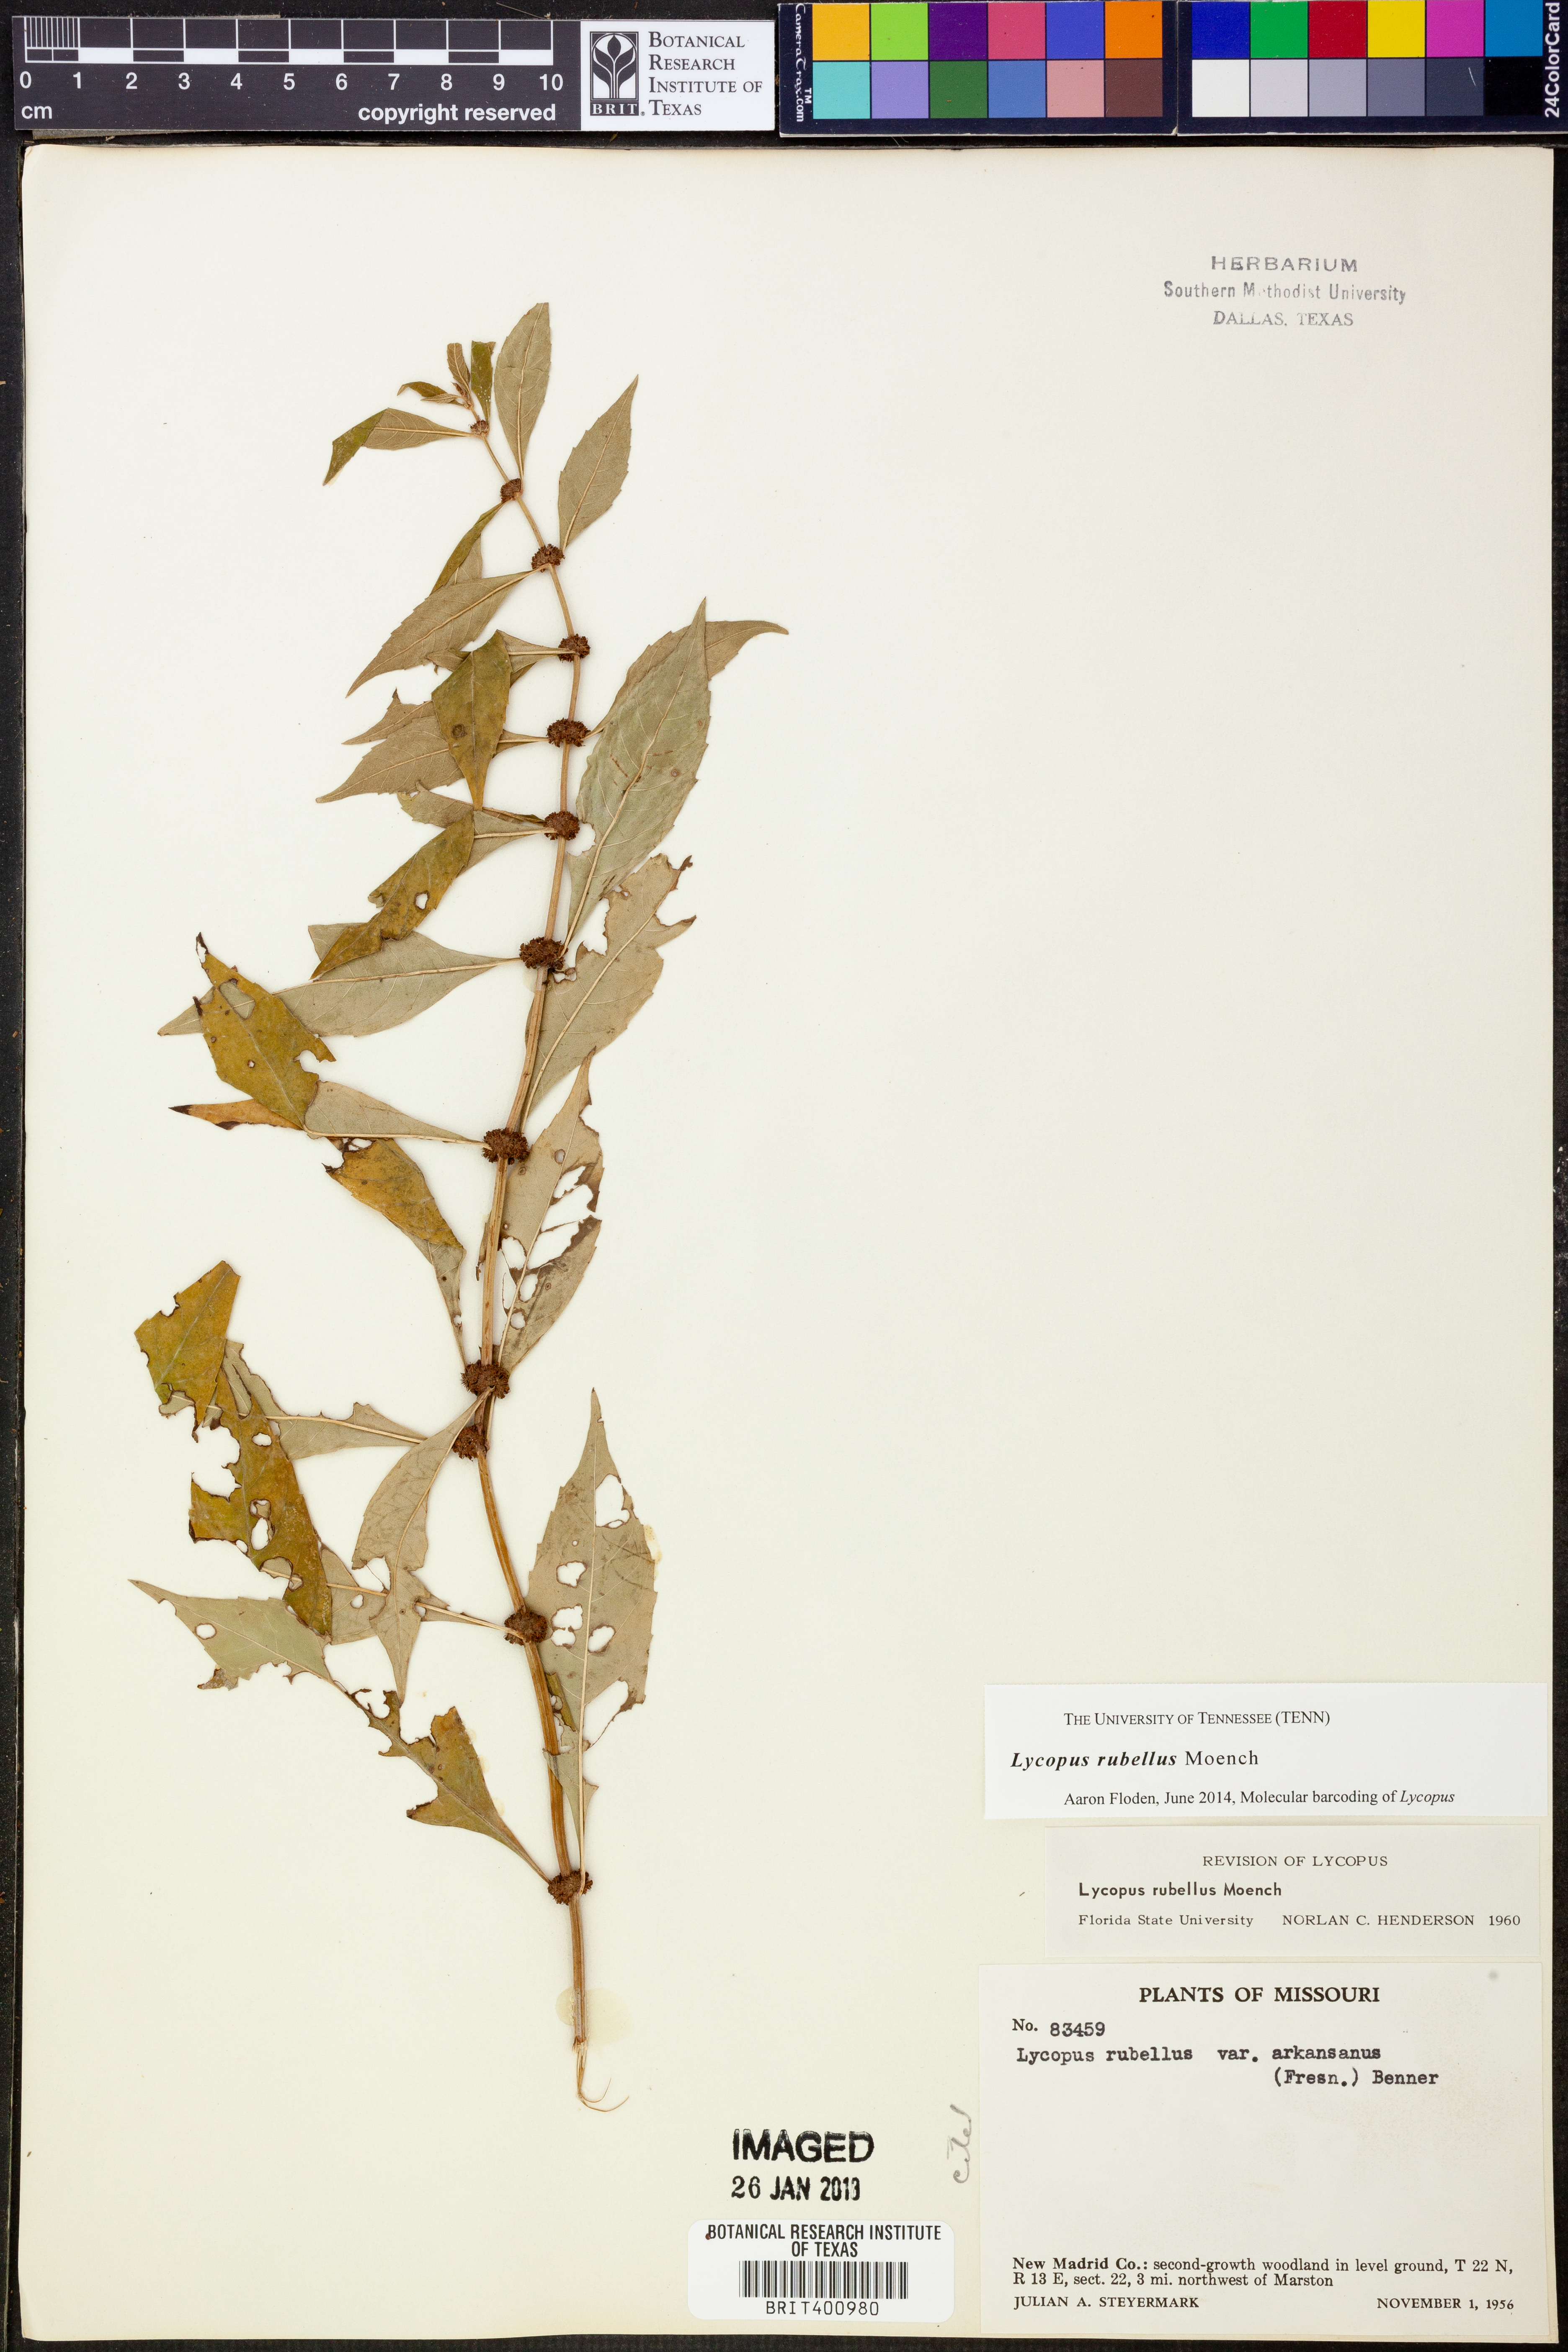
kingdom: Plantae
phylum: Tracheophyta
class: Magnoliopsida
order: Lamiales
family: Lamiaceae
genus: Lycopus
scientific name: Lycopus rubellus
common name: Stalked bugleweed
